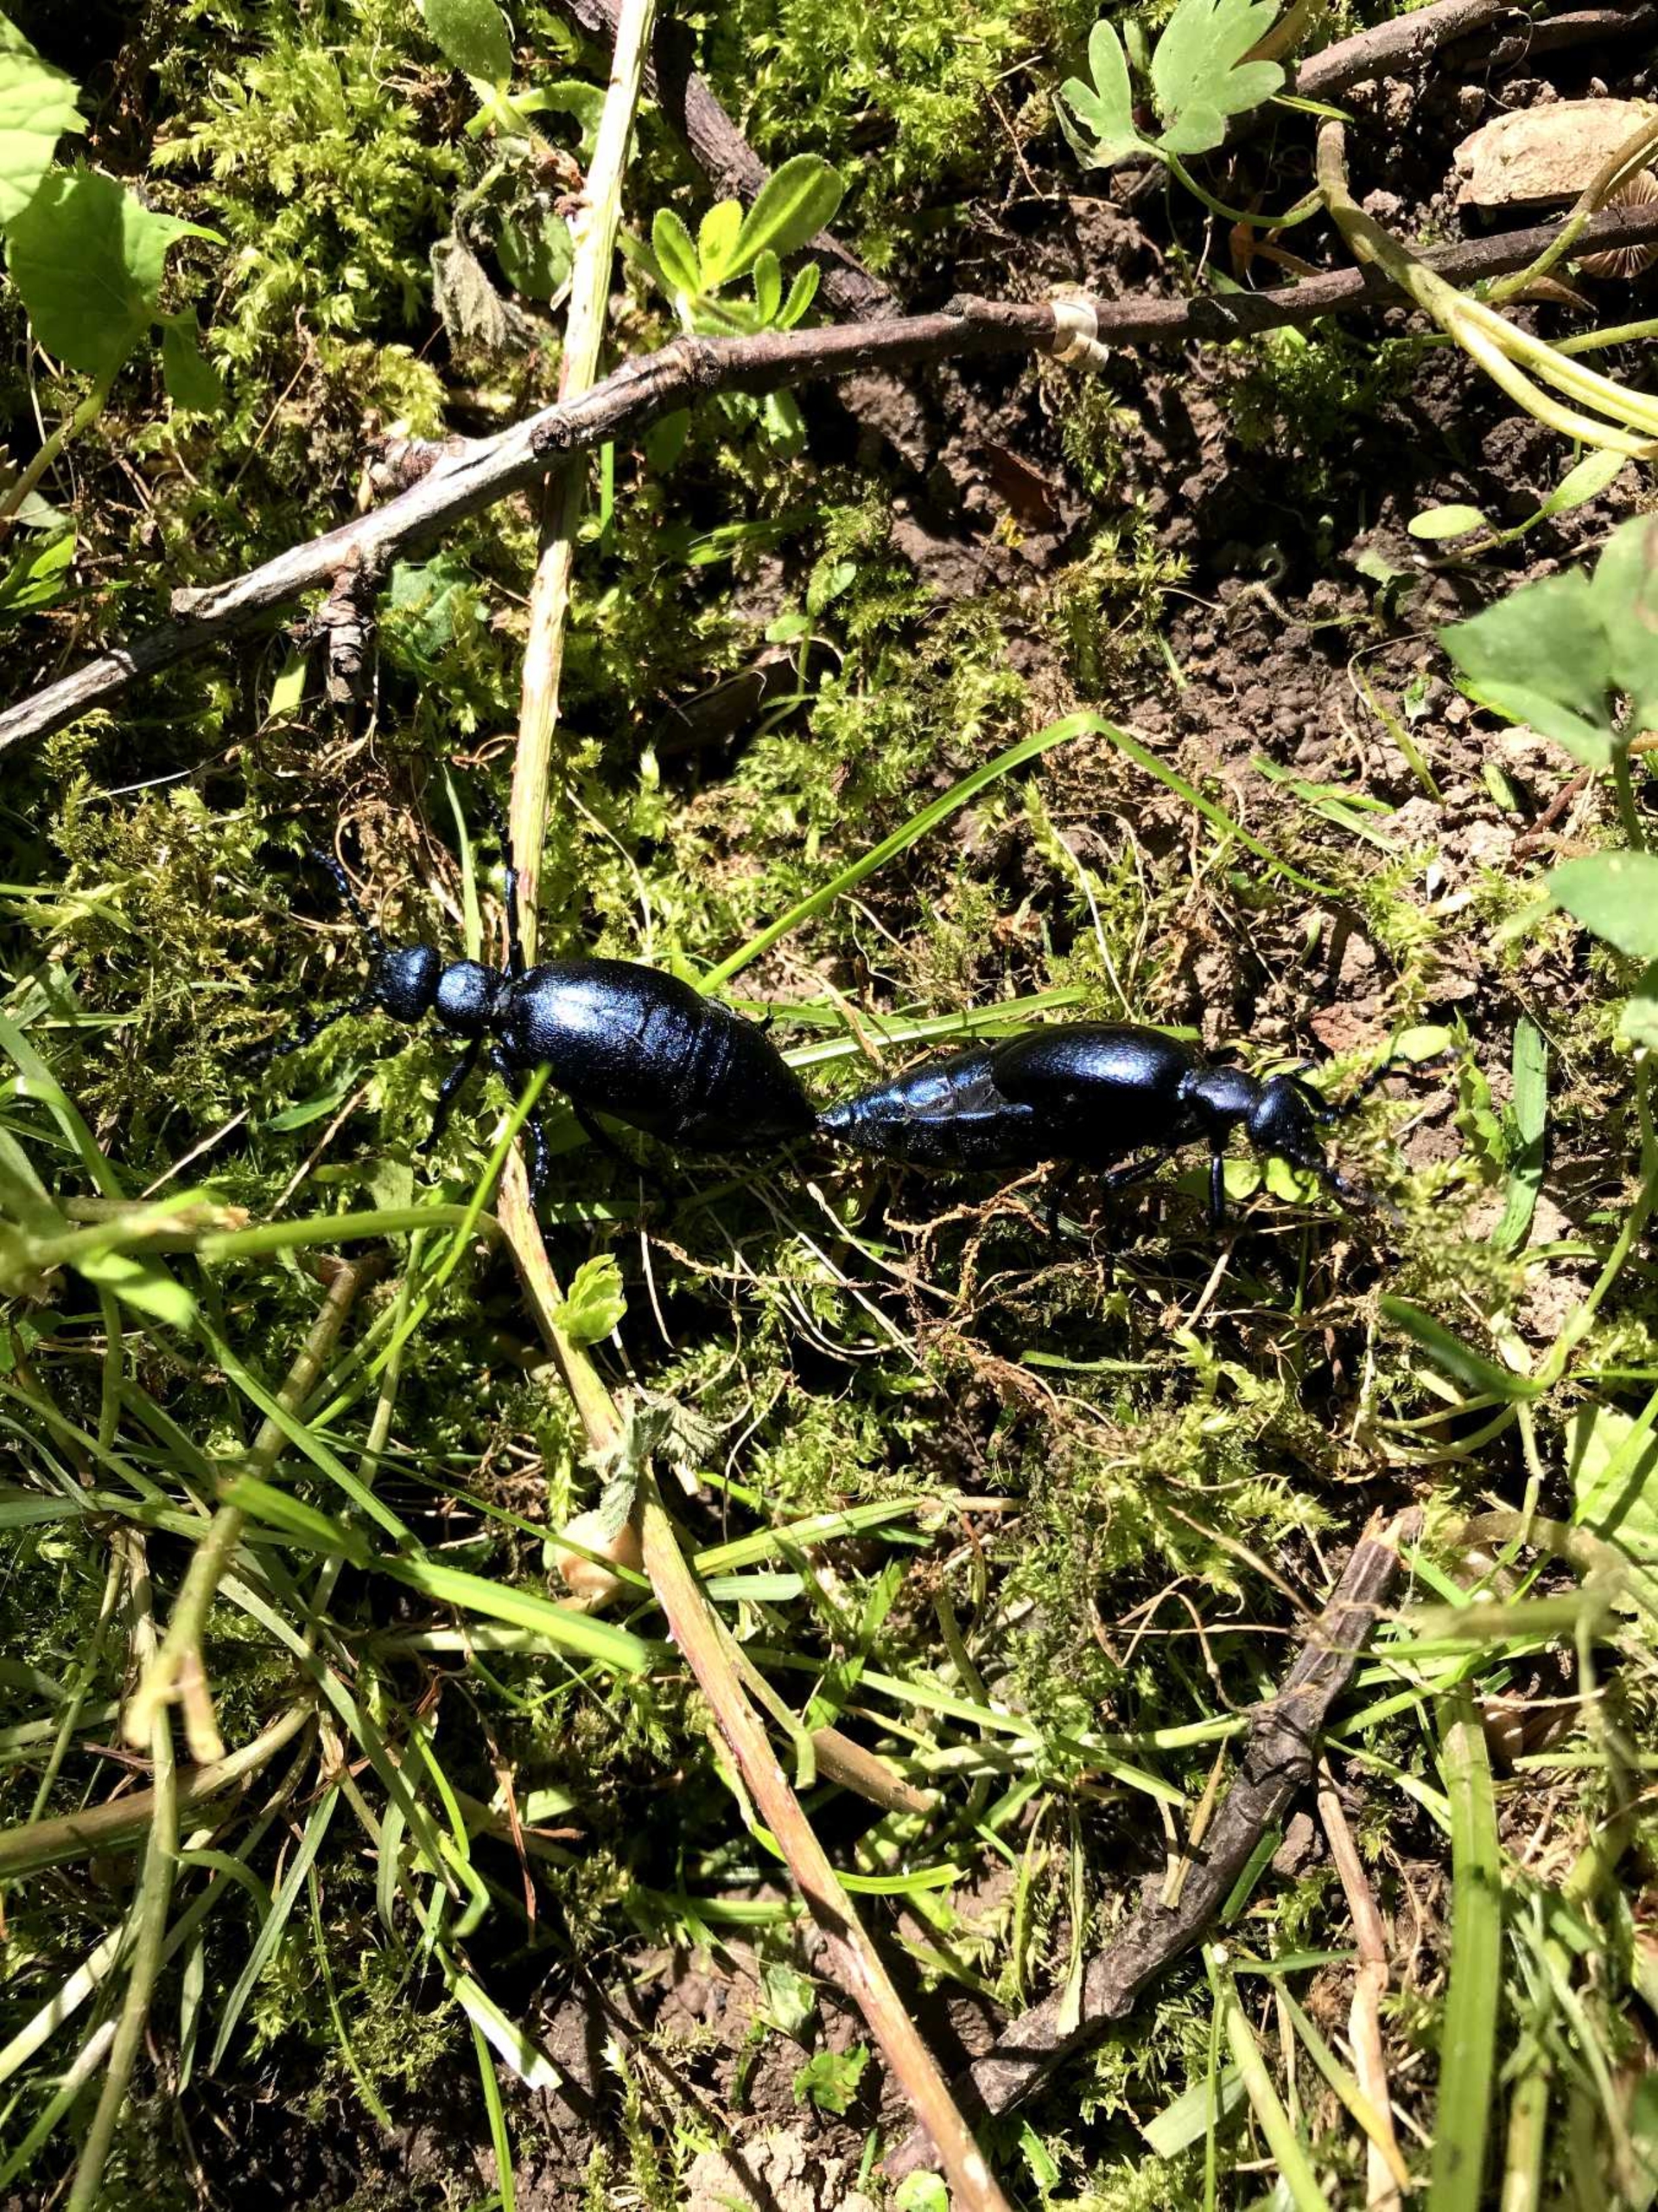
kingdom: Animalia
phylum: Arthropoda
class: Insecta
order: Coleoptera
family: Meloidae
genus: Meloe
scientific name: Meloe violaceus
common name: Blå oliebille
